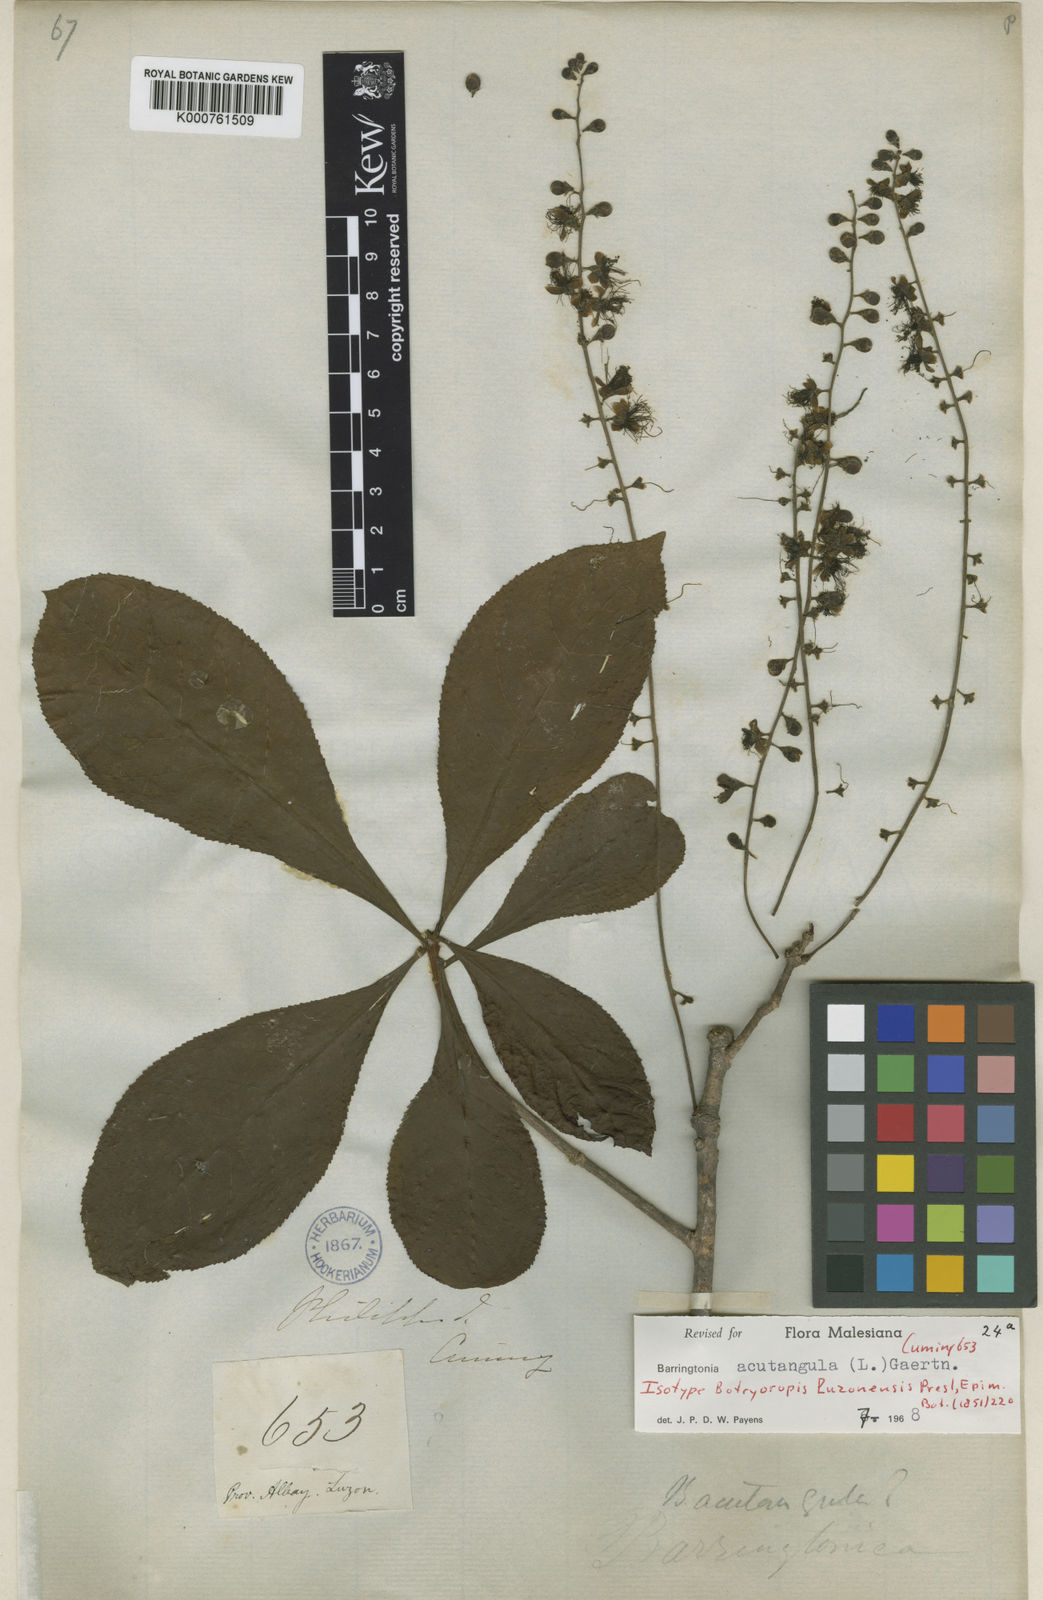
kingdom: Plantae
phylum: Tracheophyta
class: Magnoliopsida
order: Ericales
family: Lecythidaceae
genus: Barringtonia
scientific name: Barringtonia acutangula
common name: Freshwater mangrove
